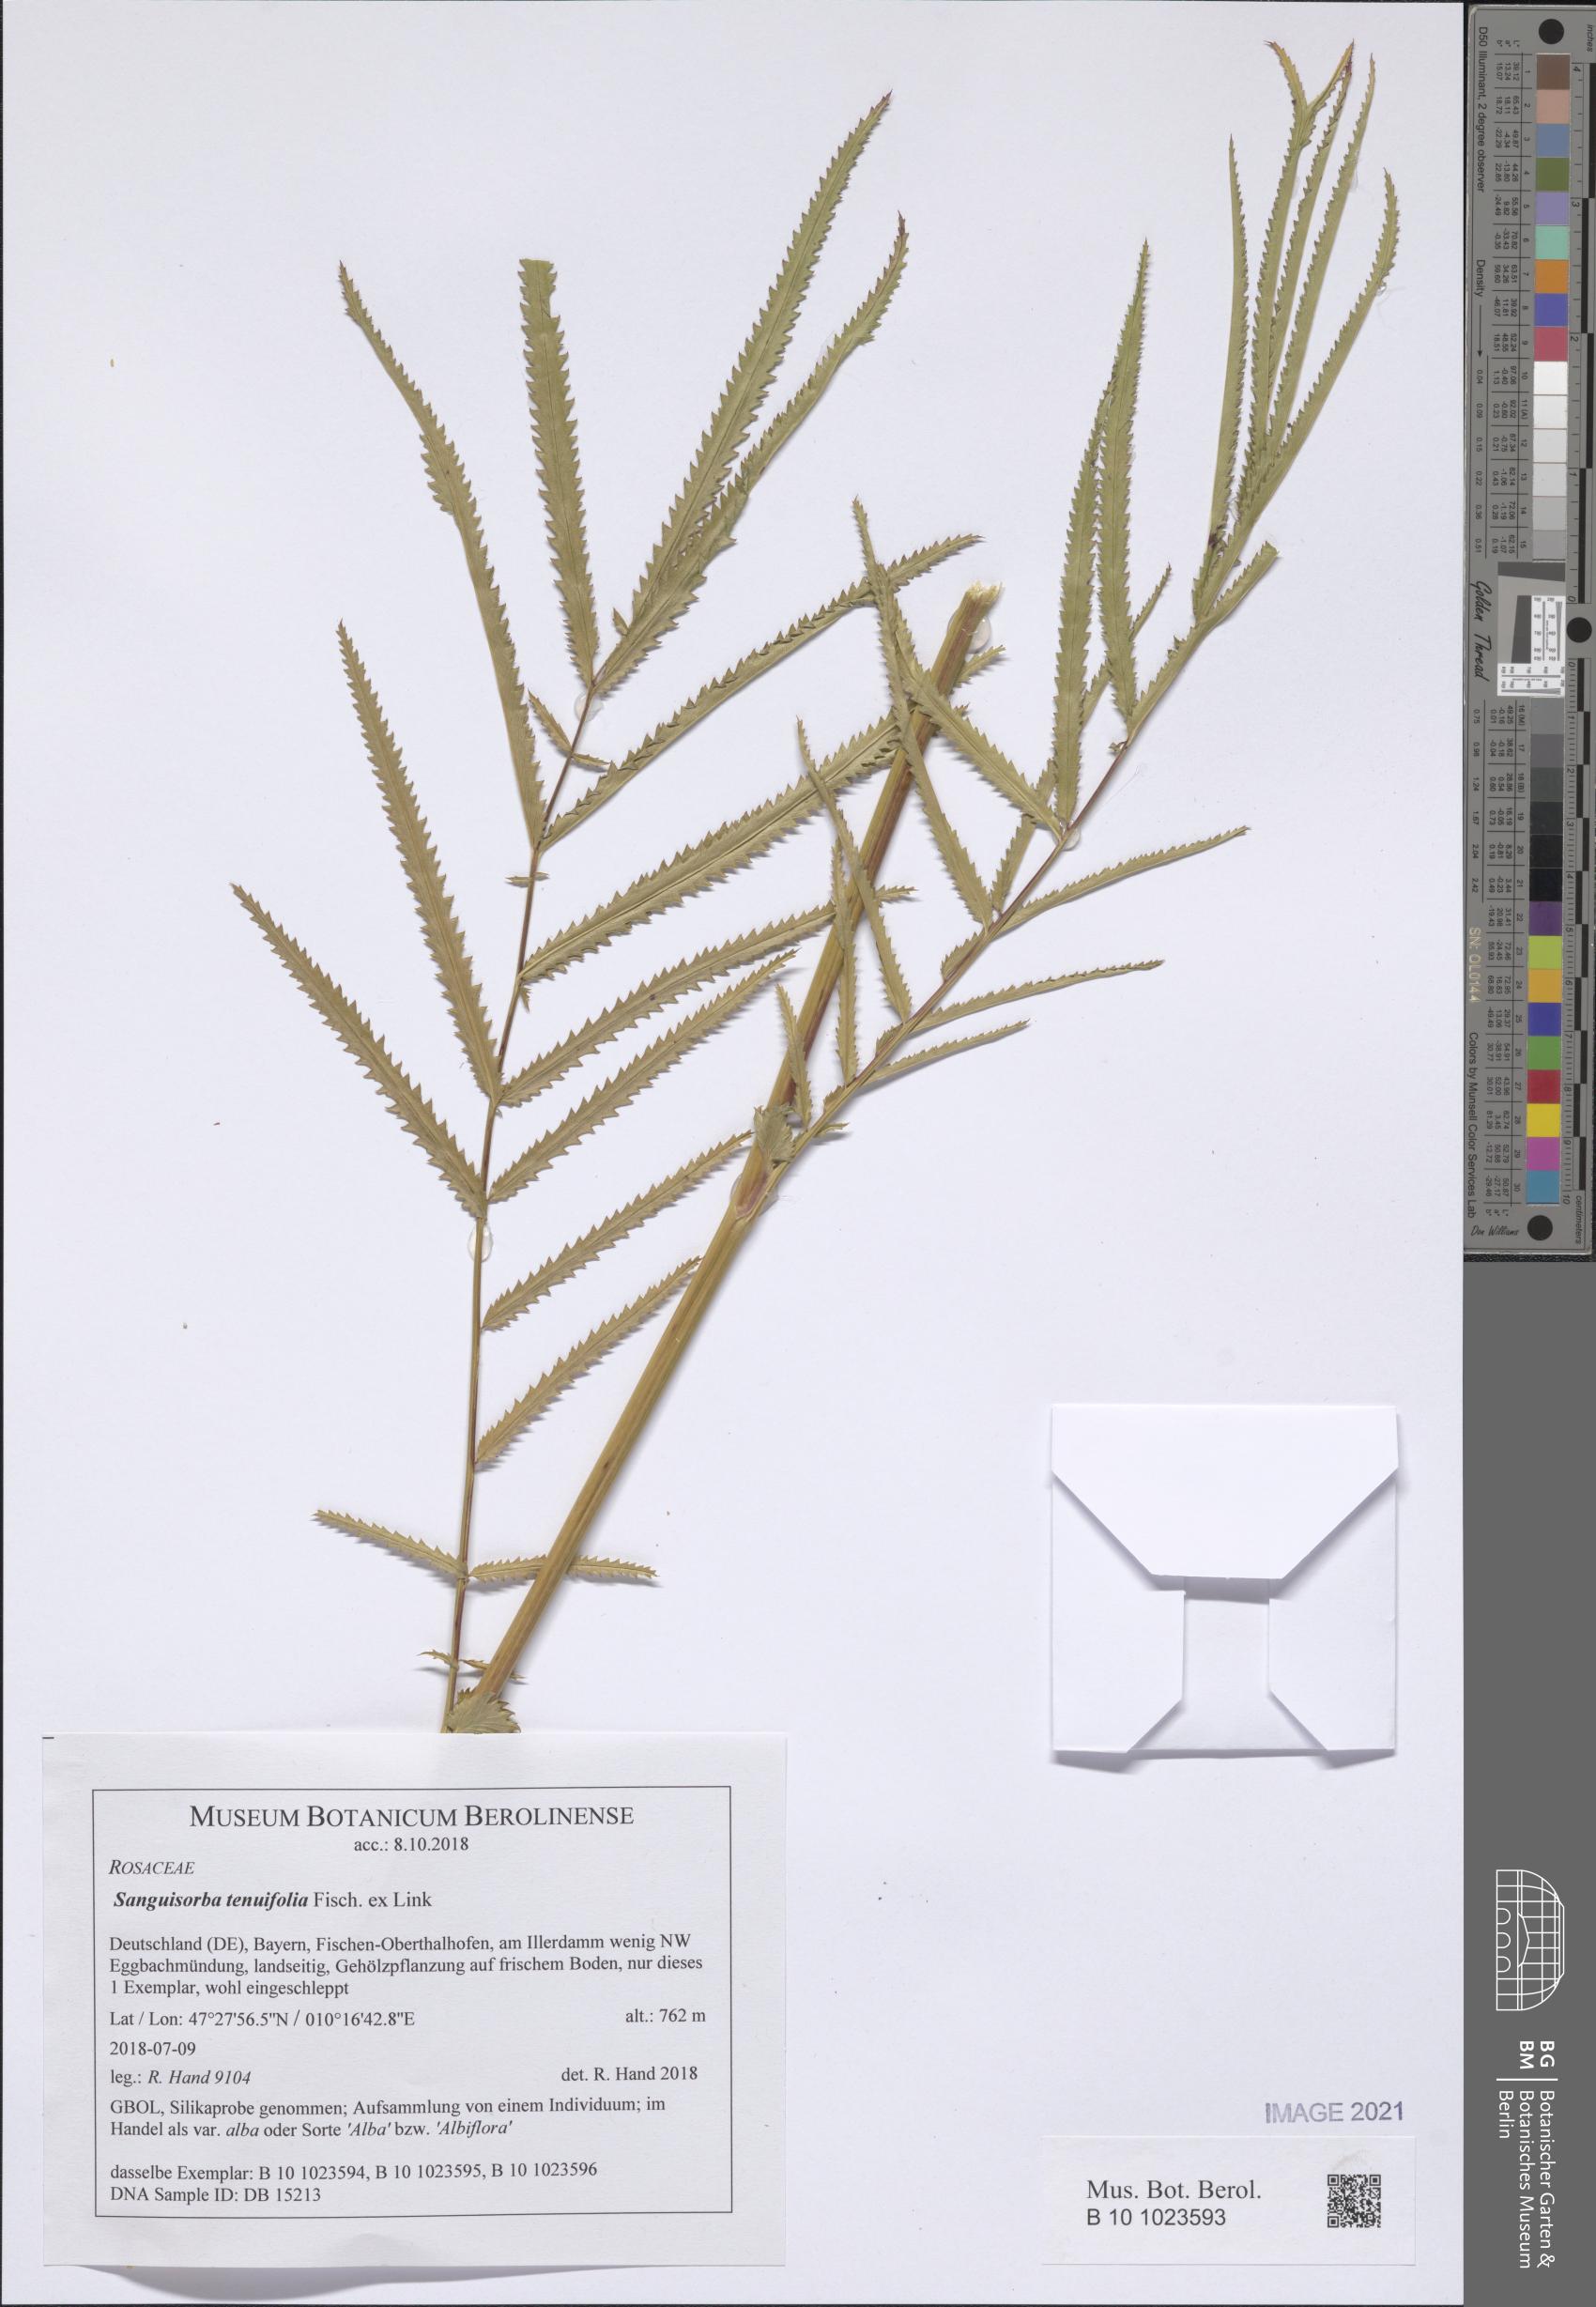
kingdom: Plantae
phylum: Tracheophyta
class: Magnoliopsida
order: Rosales
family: Rosaceae
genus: Poterium
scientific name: Poterium tenuifolium
